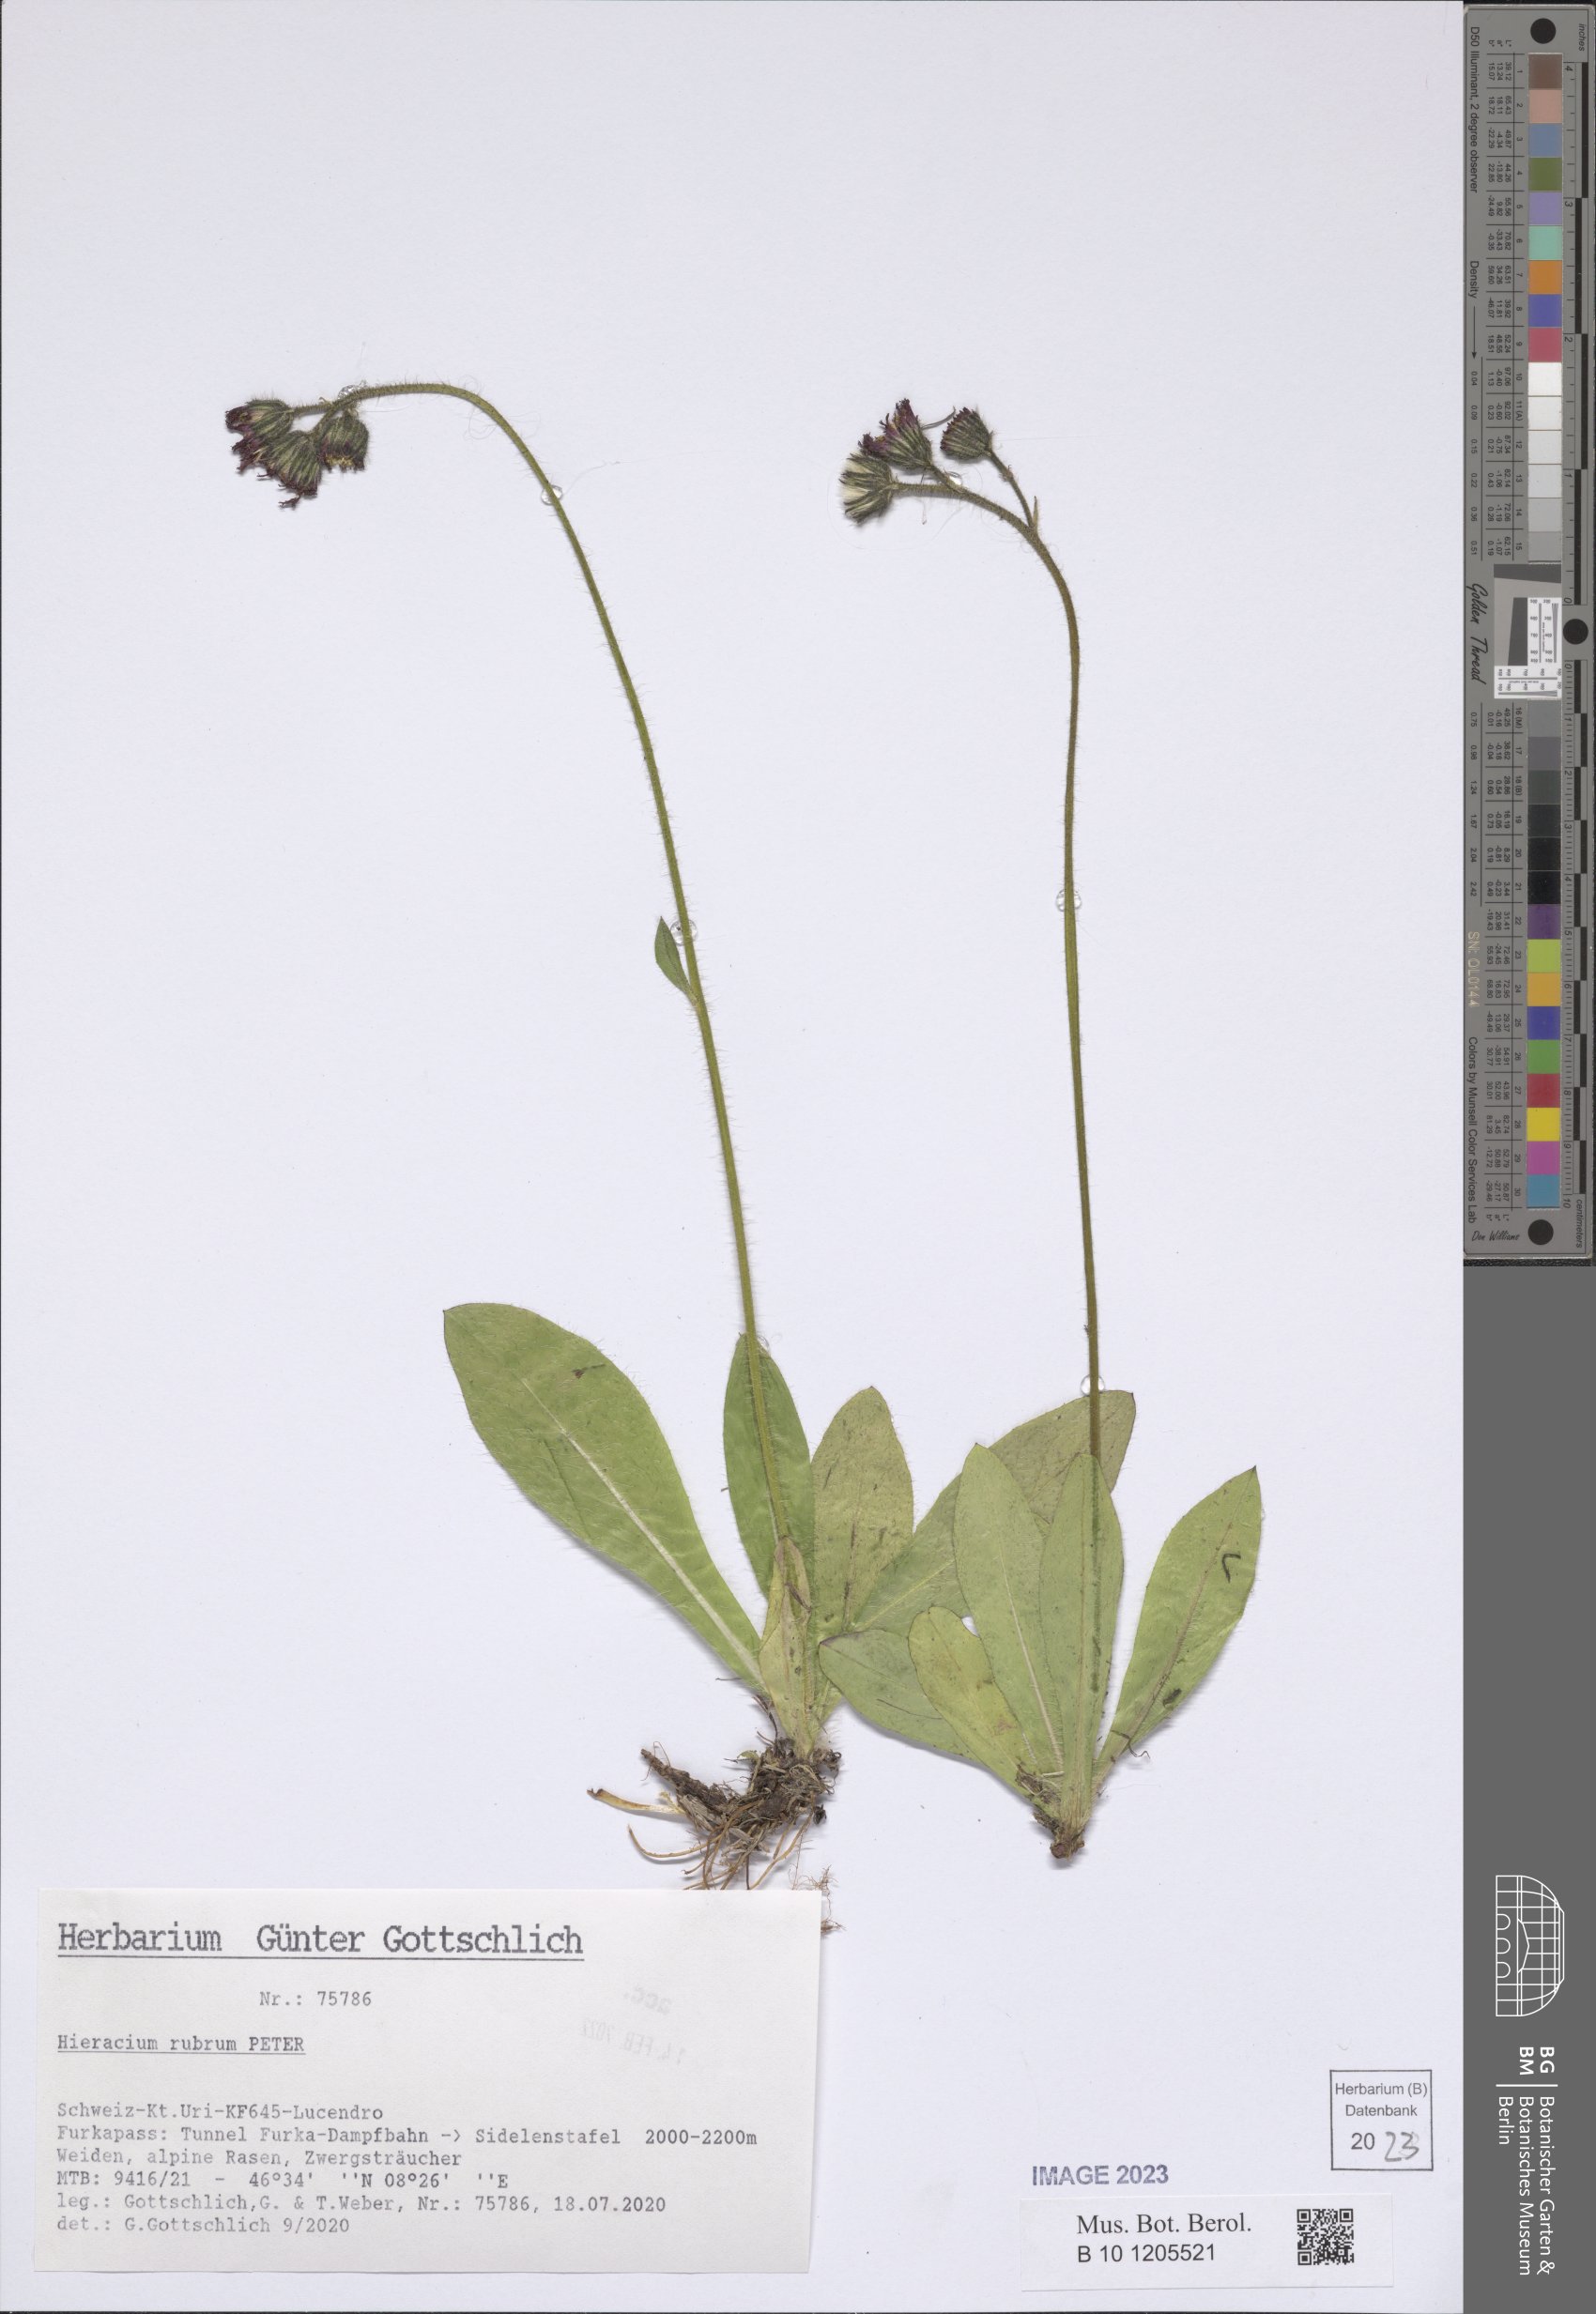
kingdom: Plantae
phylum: Tracheophyta
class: Magnoliopsida
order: Asterales
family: Asteraceae
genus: Pilosella
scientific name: Pilosella rubra
